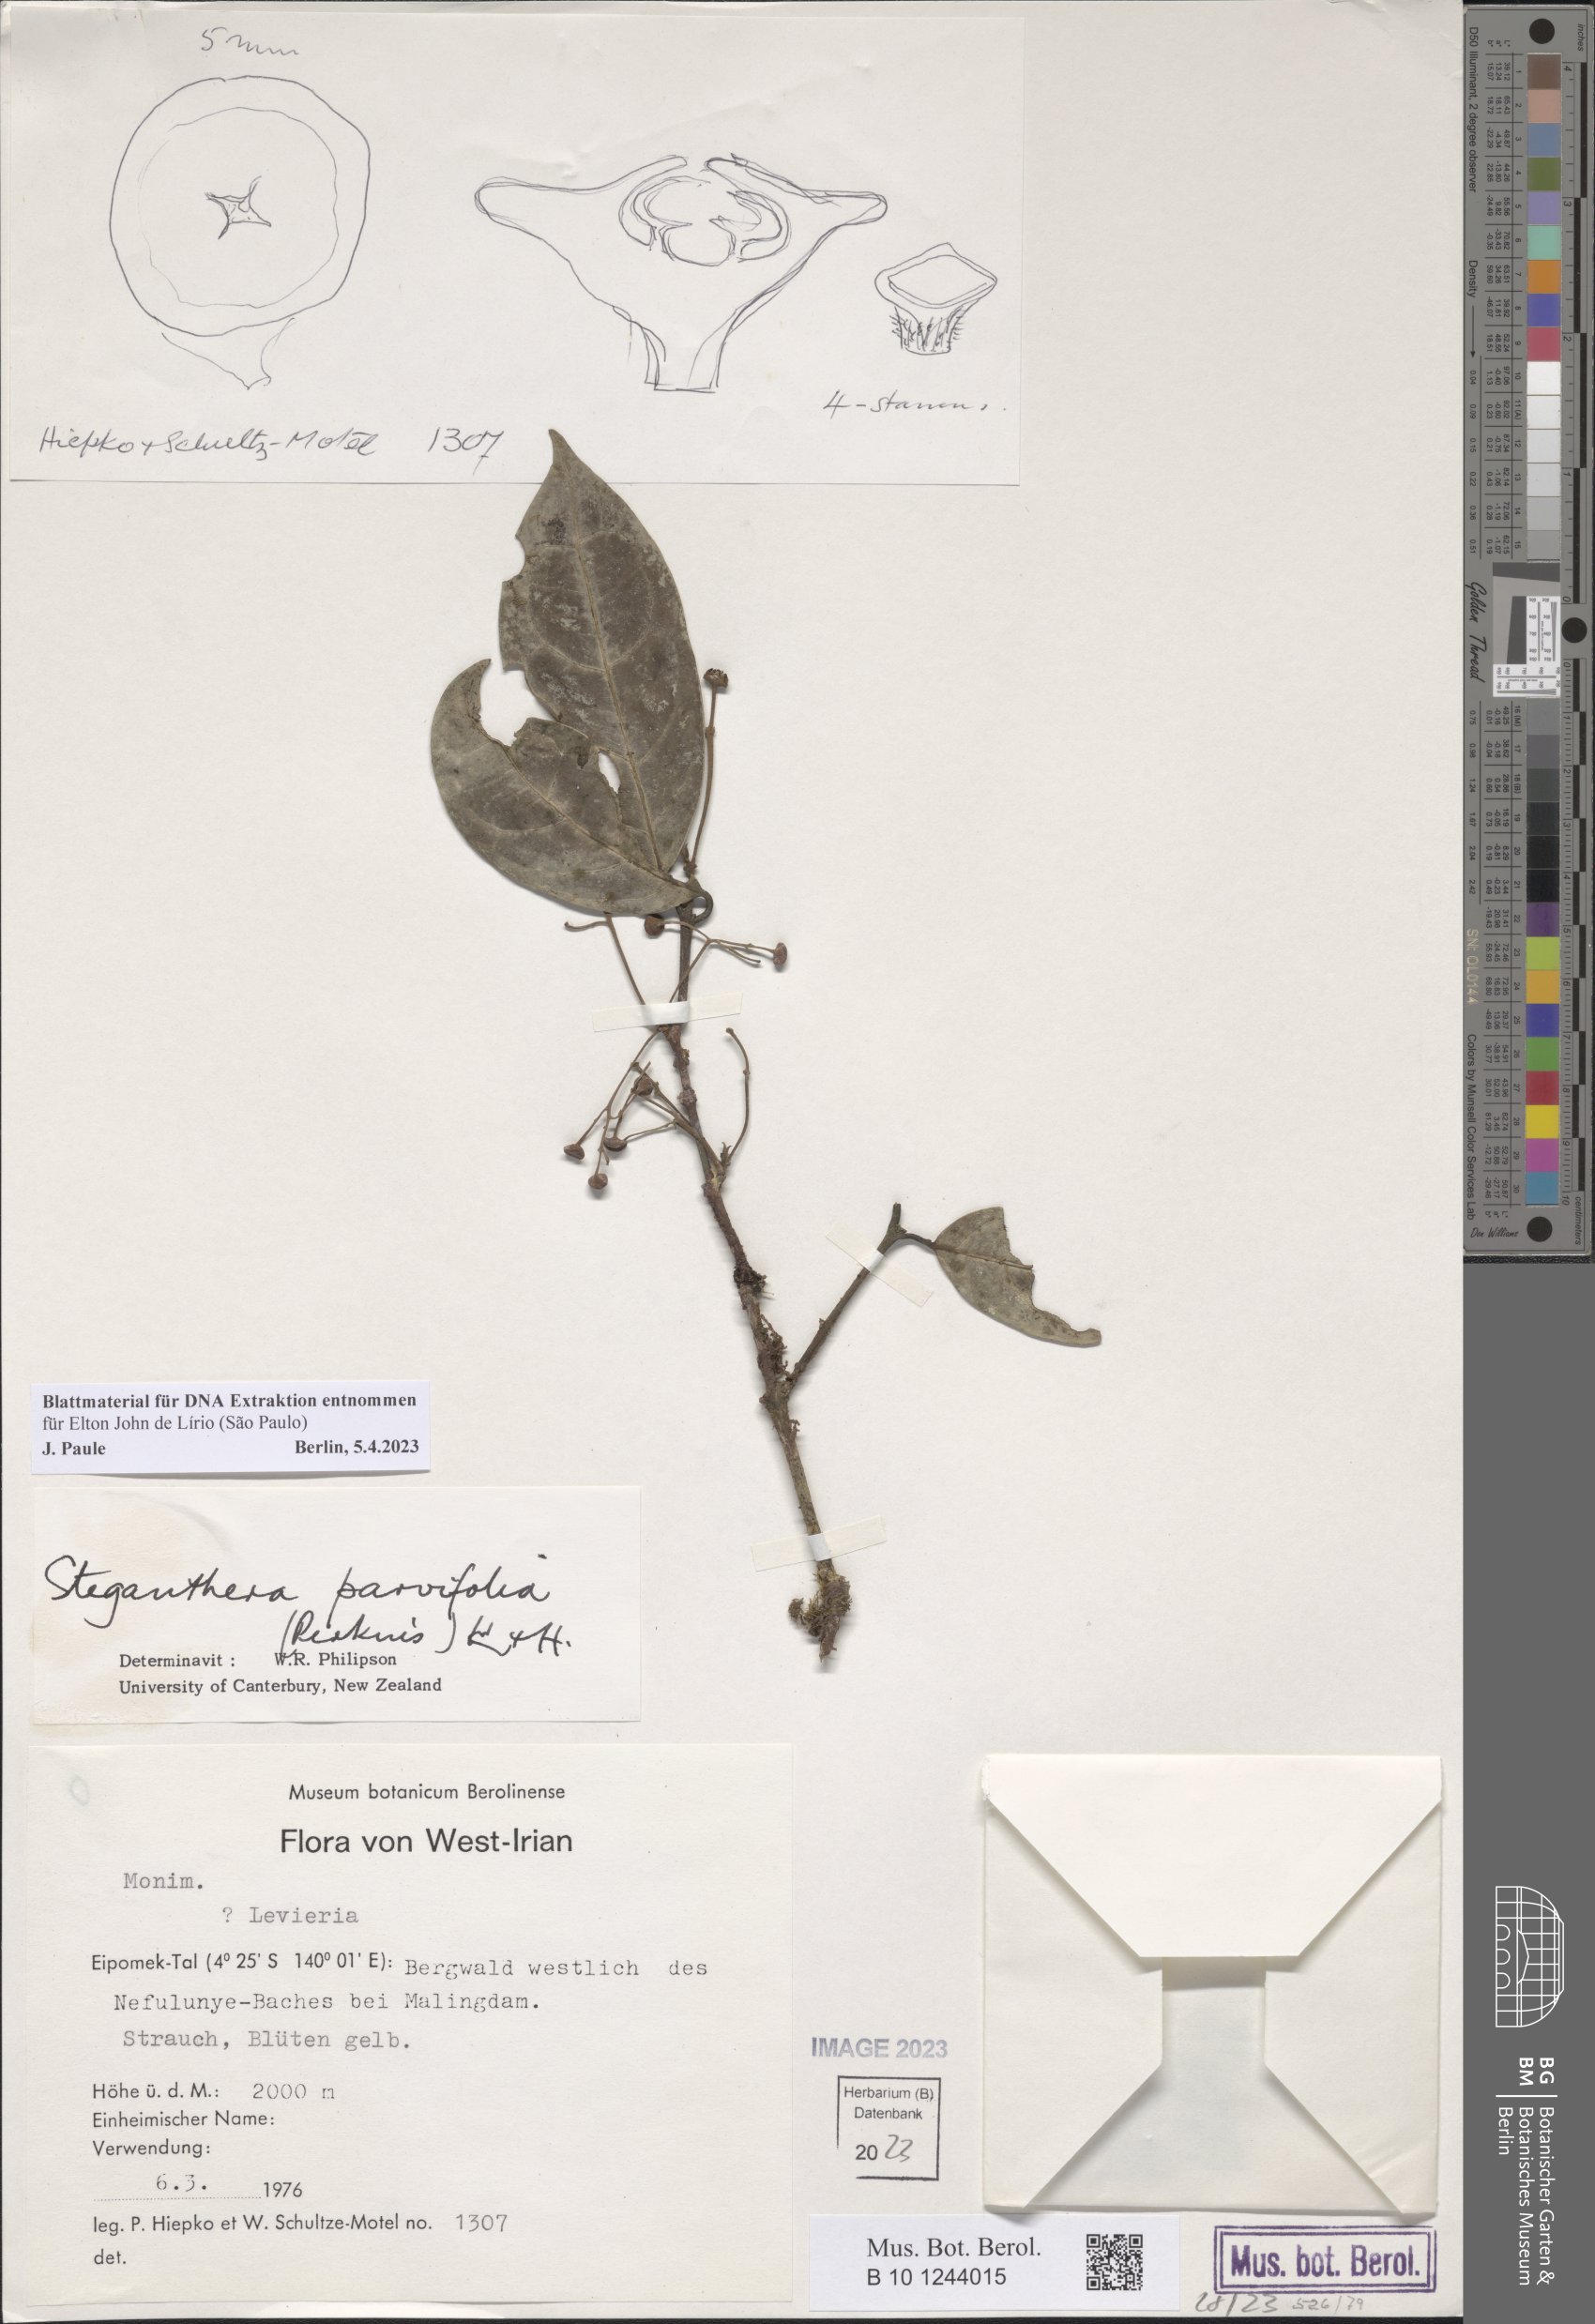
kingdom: Plantae
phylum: Tracheophyta
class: Magnoliopsida
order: Laurales
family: Monimiaceae
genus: Steganthera
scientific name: Steganthera parvifolia
